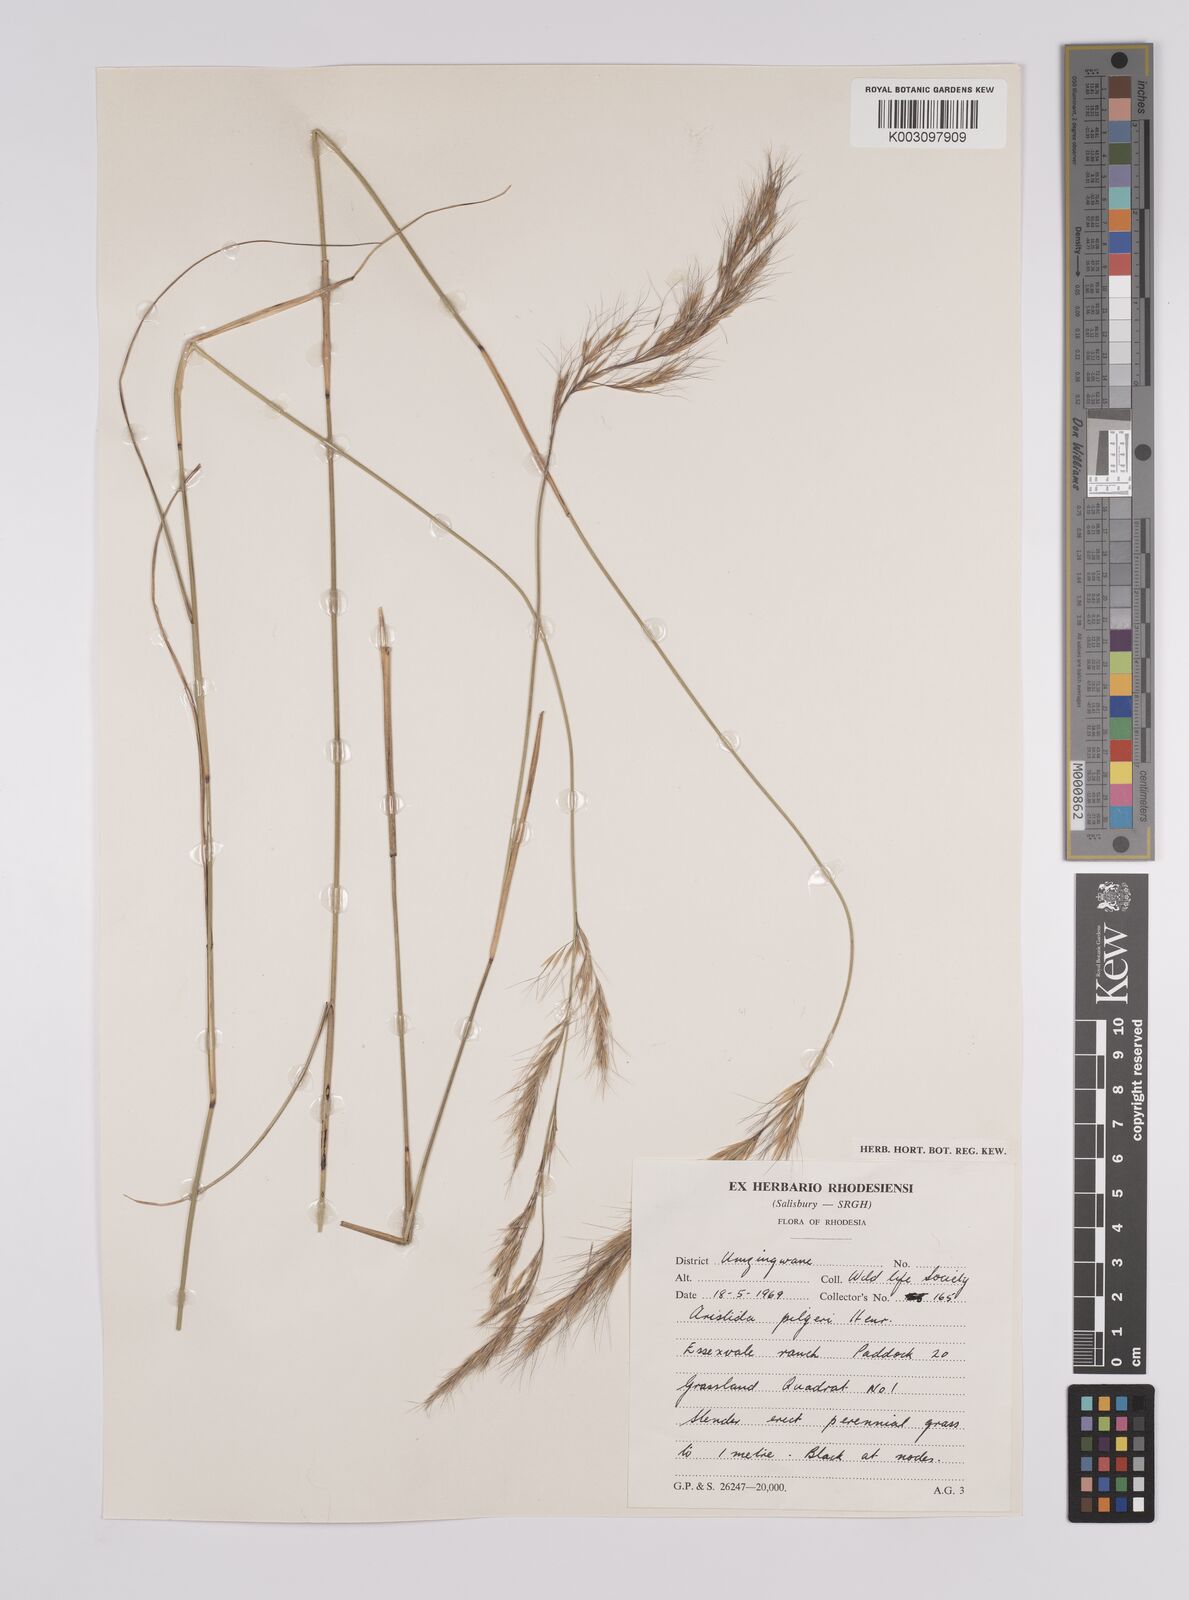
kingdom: Plantae
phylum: Tracheophyta
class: Liliopsida
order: Poales
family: Poaceae
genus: Aristida
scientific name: Aristida pilgeri
